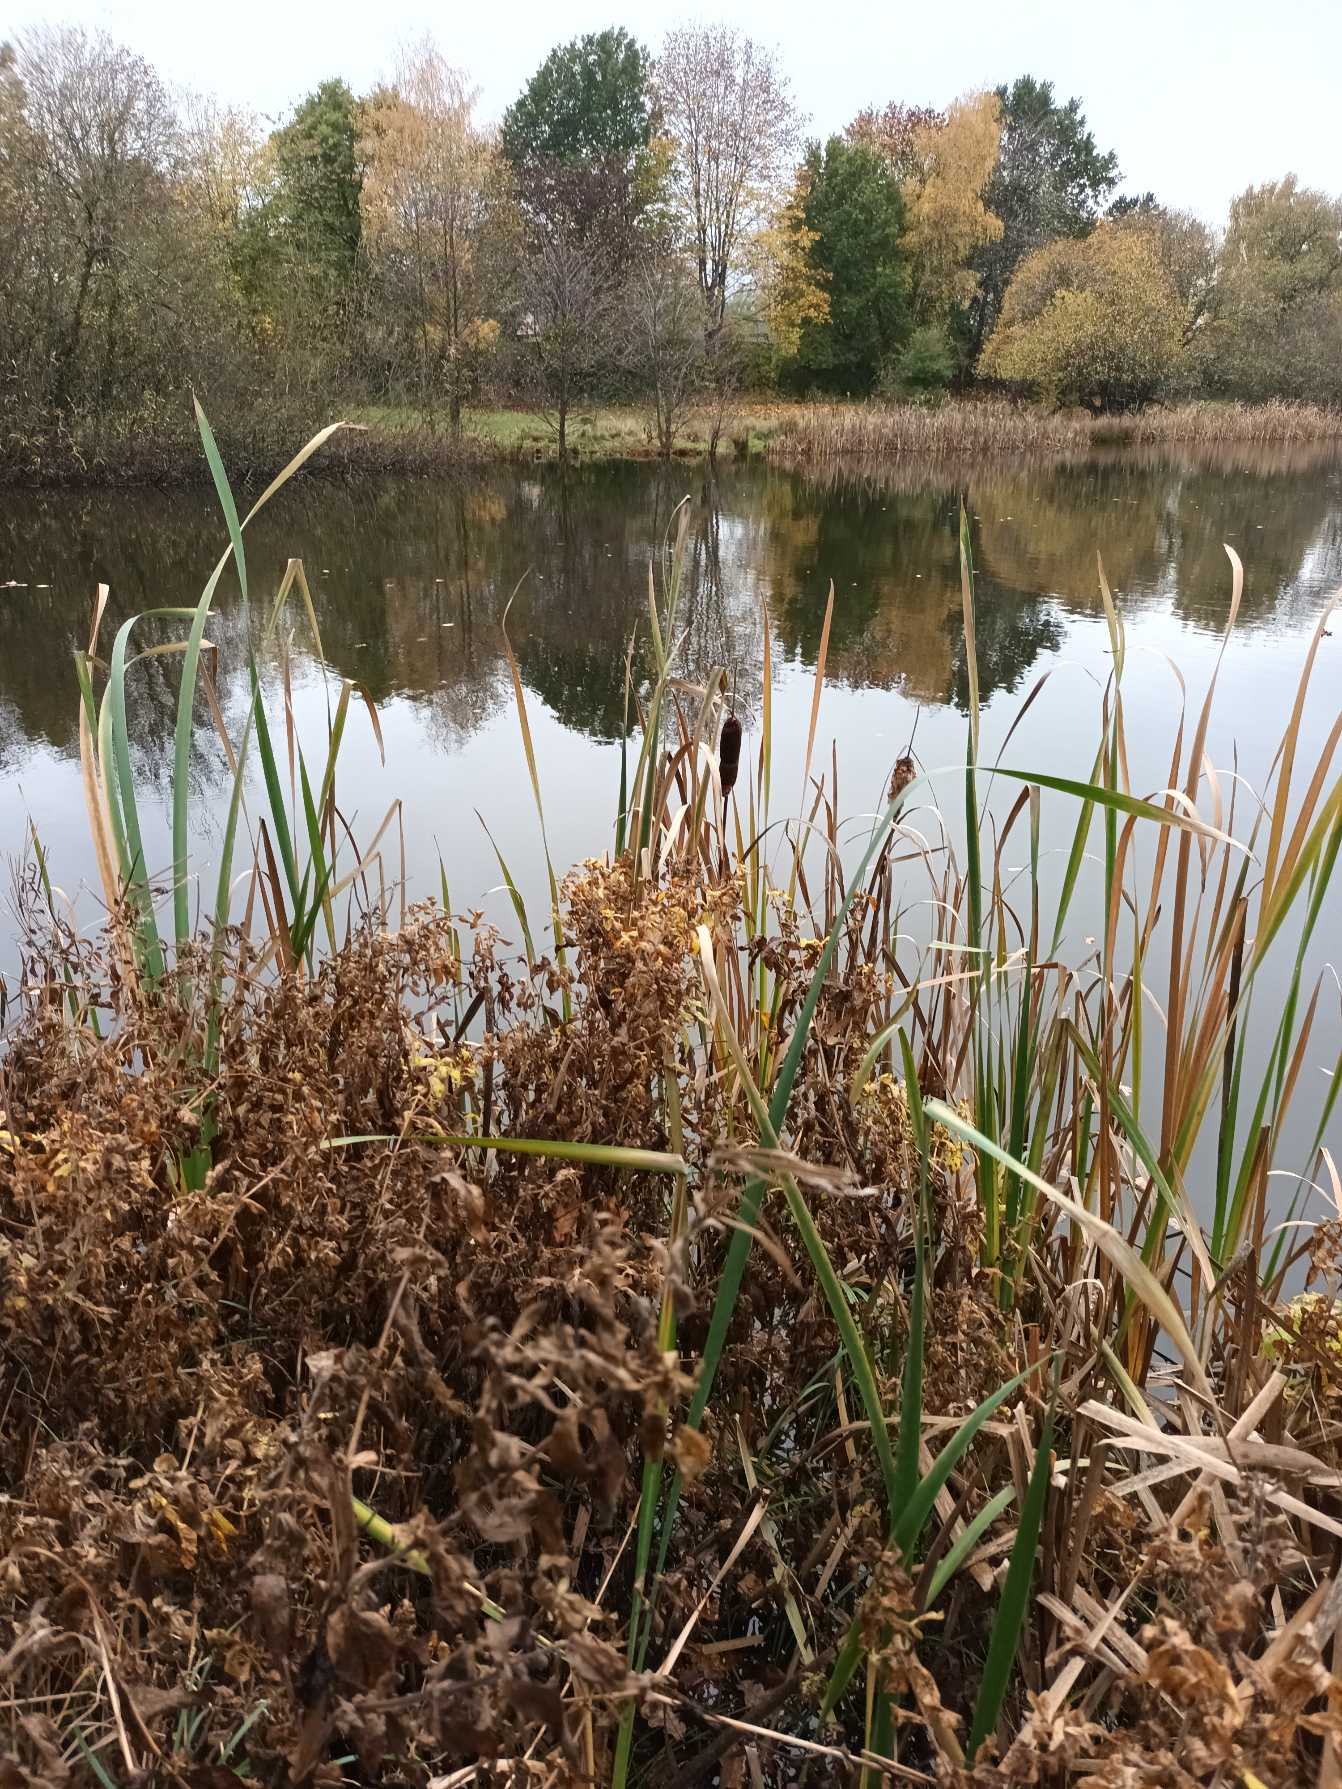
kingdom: Plantae
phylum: Tracheophyta
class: Liliopsida
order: Poales
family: Typhaceae
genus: Typha
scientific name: Typha latifolia
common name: Bredbladet dunhammer
